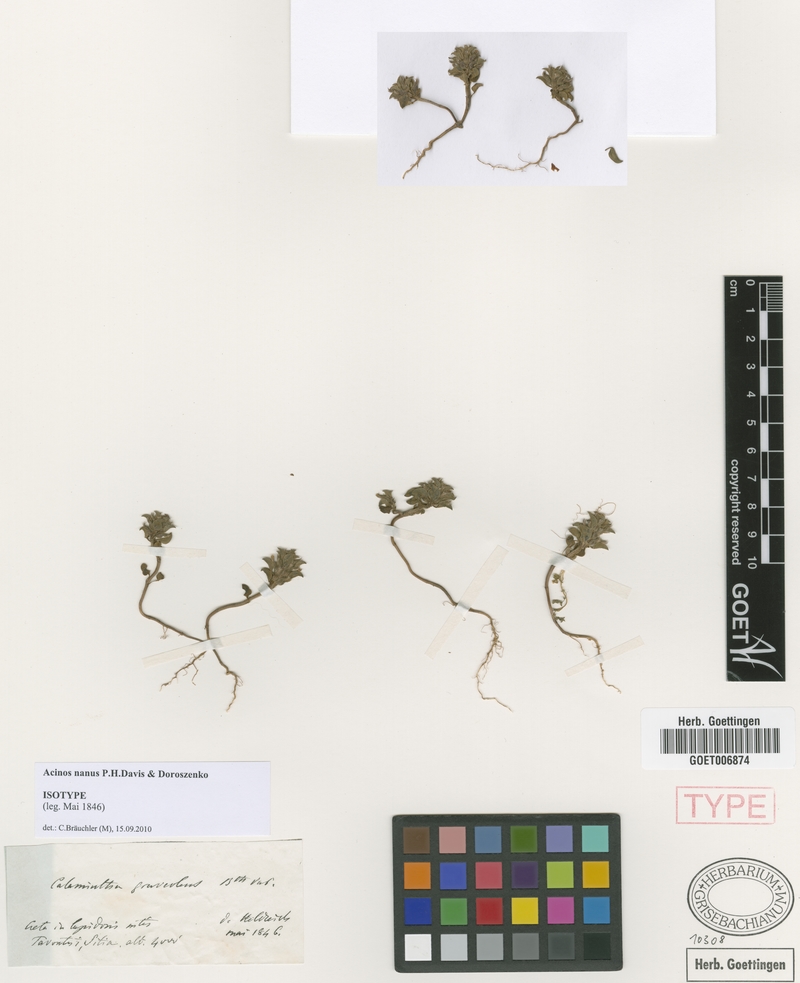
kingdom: Plantae
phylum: Tracheophyta
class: Magnoliopsida
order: Lamiales
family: Lamiaceae
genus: Clinopodium
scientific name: Clinopodium nanum
